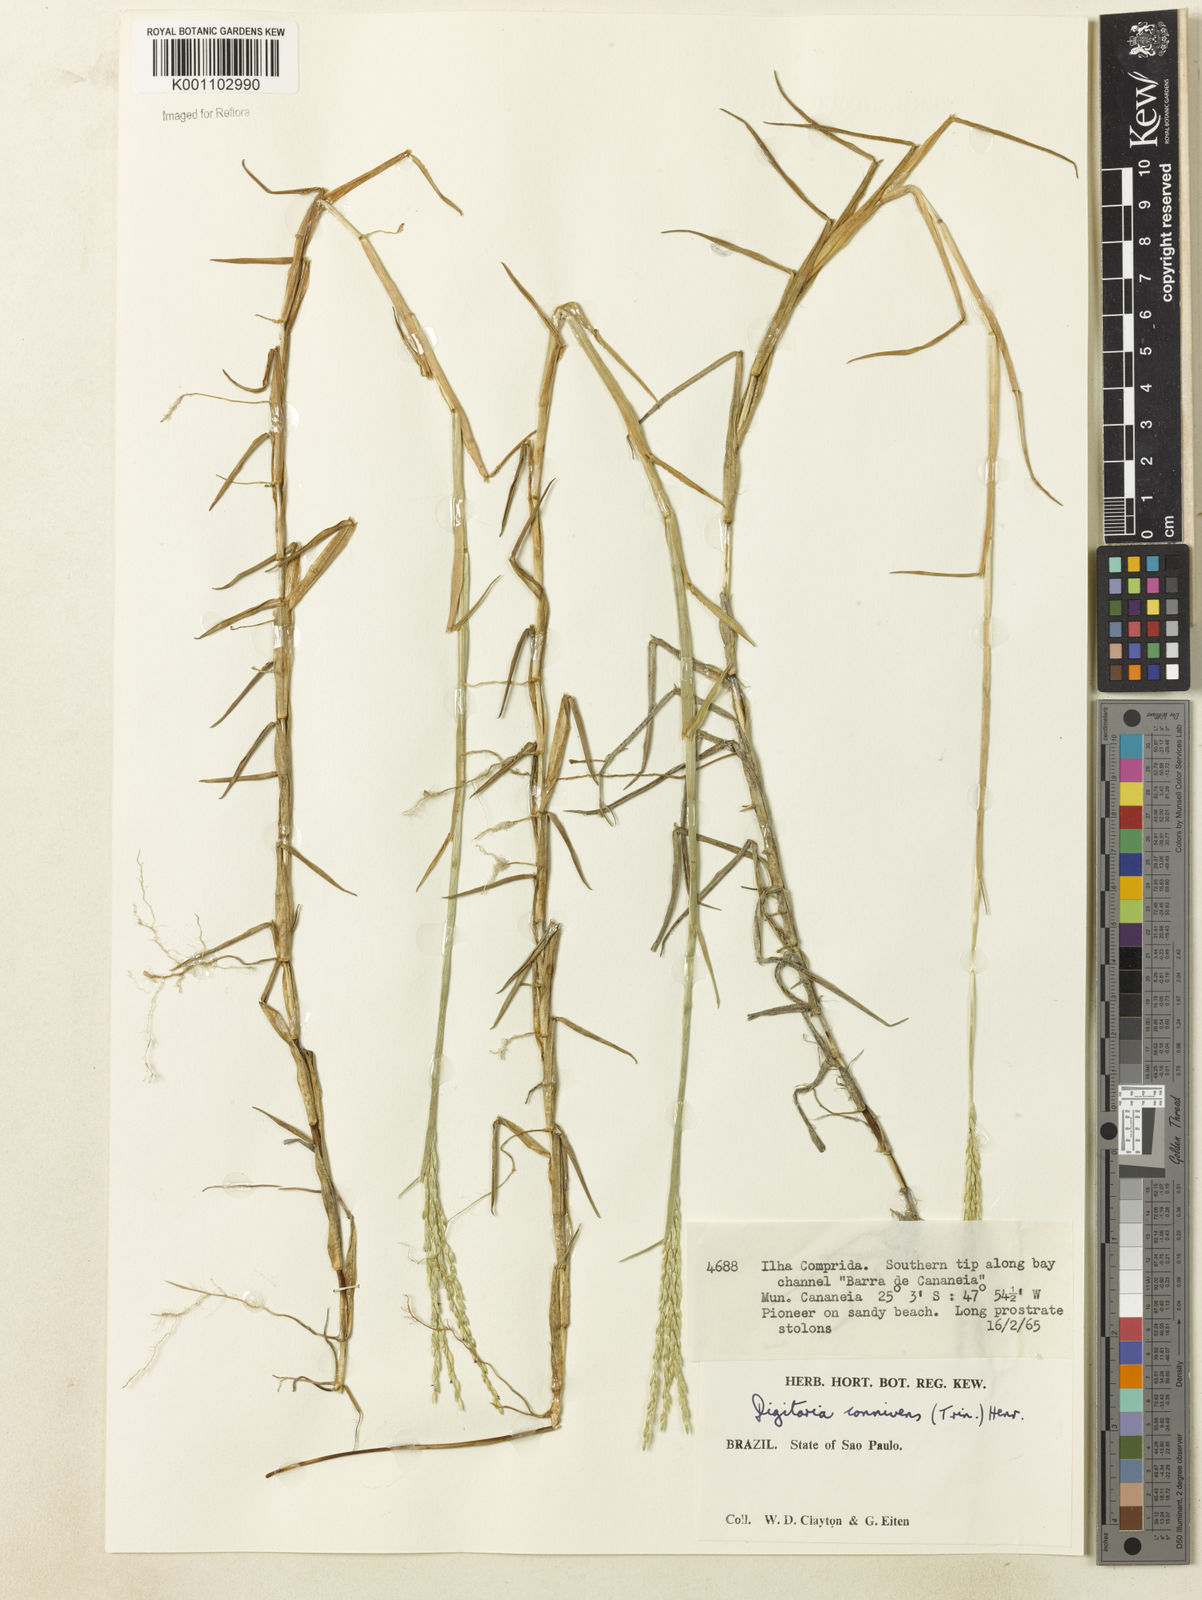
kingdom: Plantae
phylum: Tracheophyta
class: Liliopsida
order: Poales
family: Poaceae
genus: Digitaria
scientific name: Digitaria connivens
